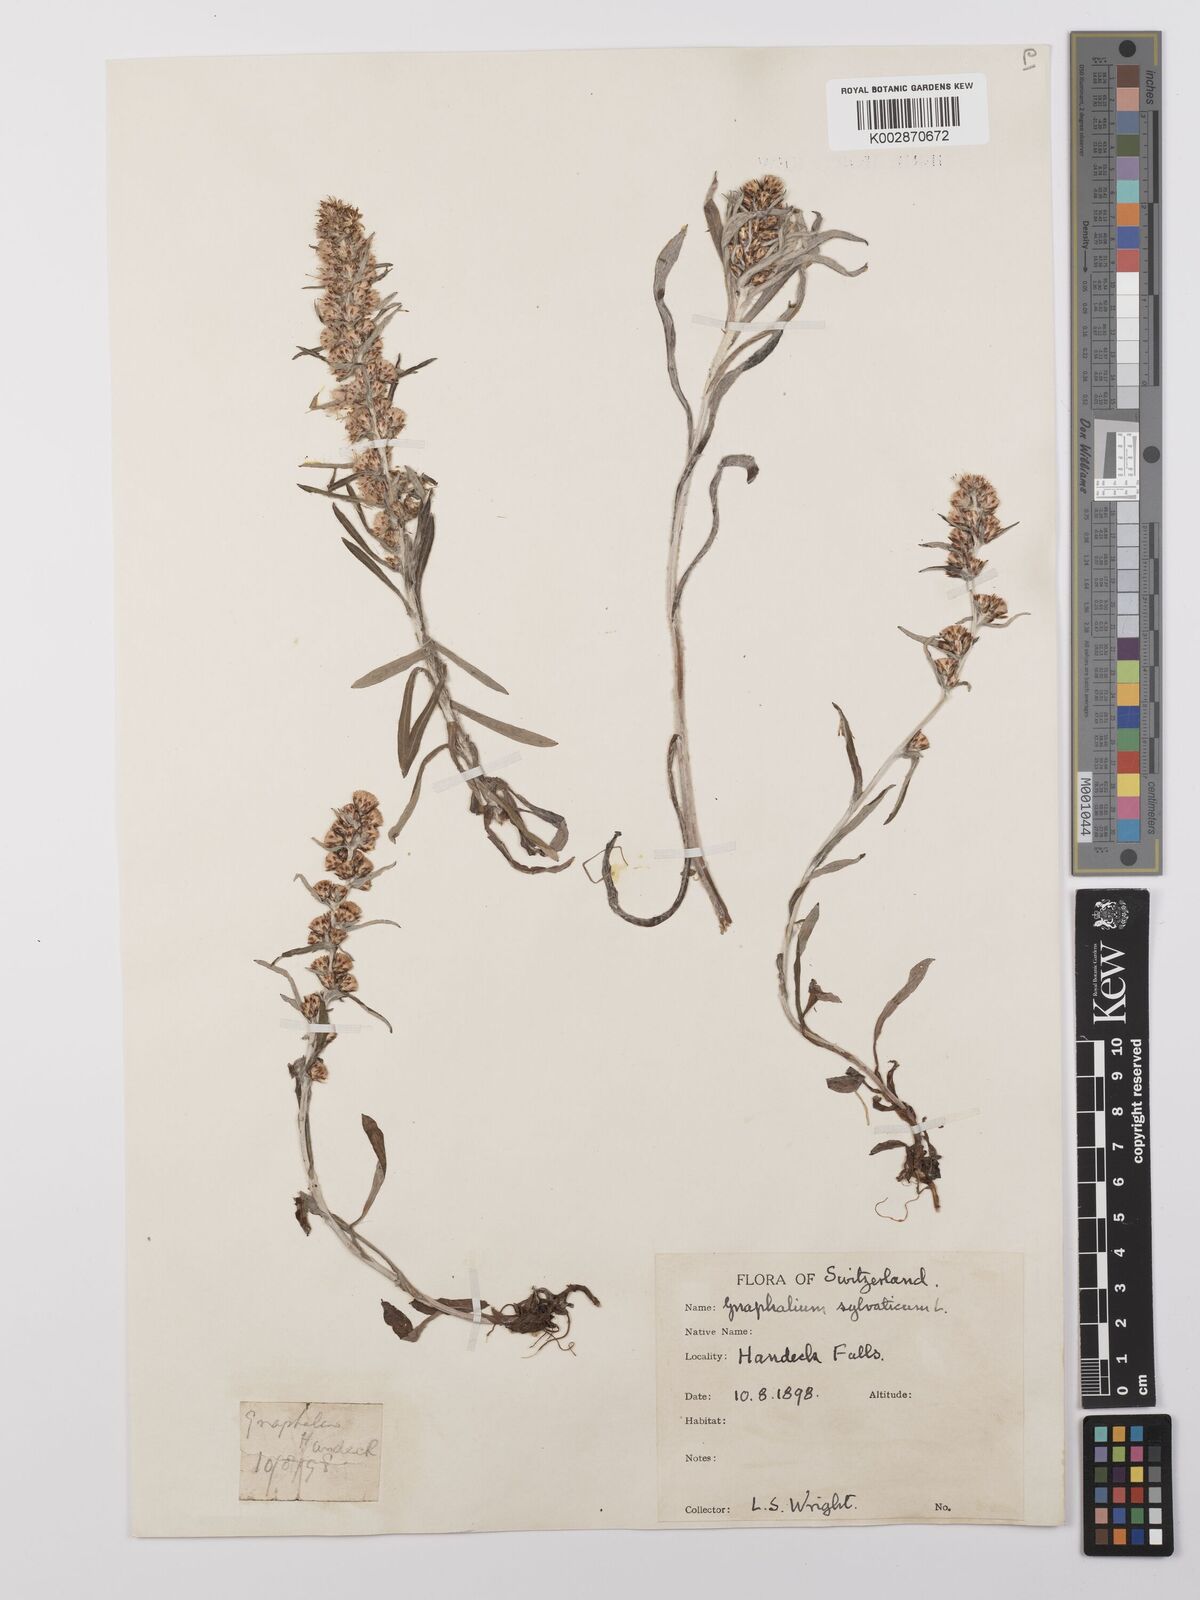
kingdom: Plantae
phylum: Tracheophyta
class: Magnoliopsida
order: Asterales
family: Asteraceae
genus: Omalotheca
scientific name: Omalotheca sylvatica
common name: Heath cudweed
